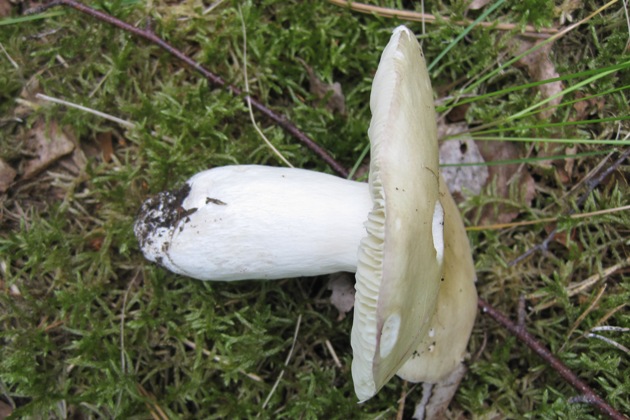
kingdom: Fungi
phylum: Basidiomycota
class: Agaricomycetes
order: Russulales
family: Russulaceae
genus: Russula
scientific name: Russula depallens
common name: falmende skørhat
